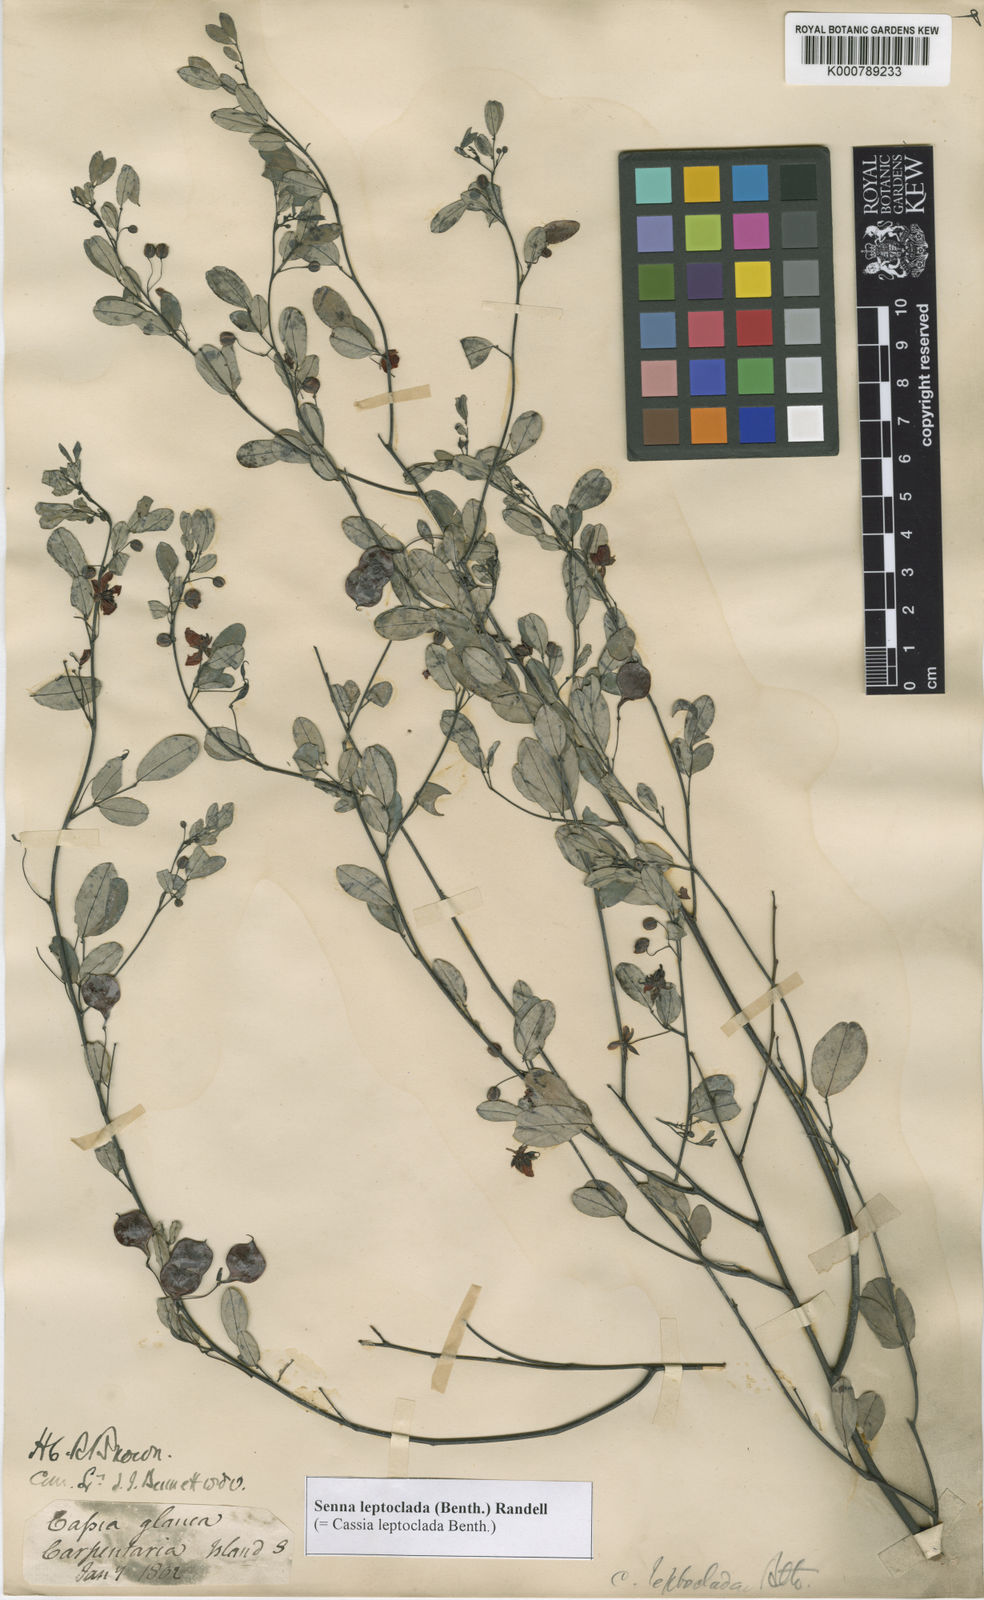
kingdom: Plantae
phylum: Tracheophyta
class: Magnoliopsida
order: Fabales
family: Fabaceae
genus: Senna
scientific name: Senna leptoclada
